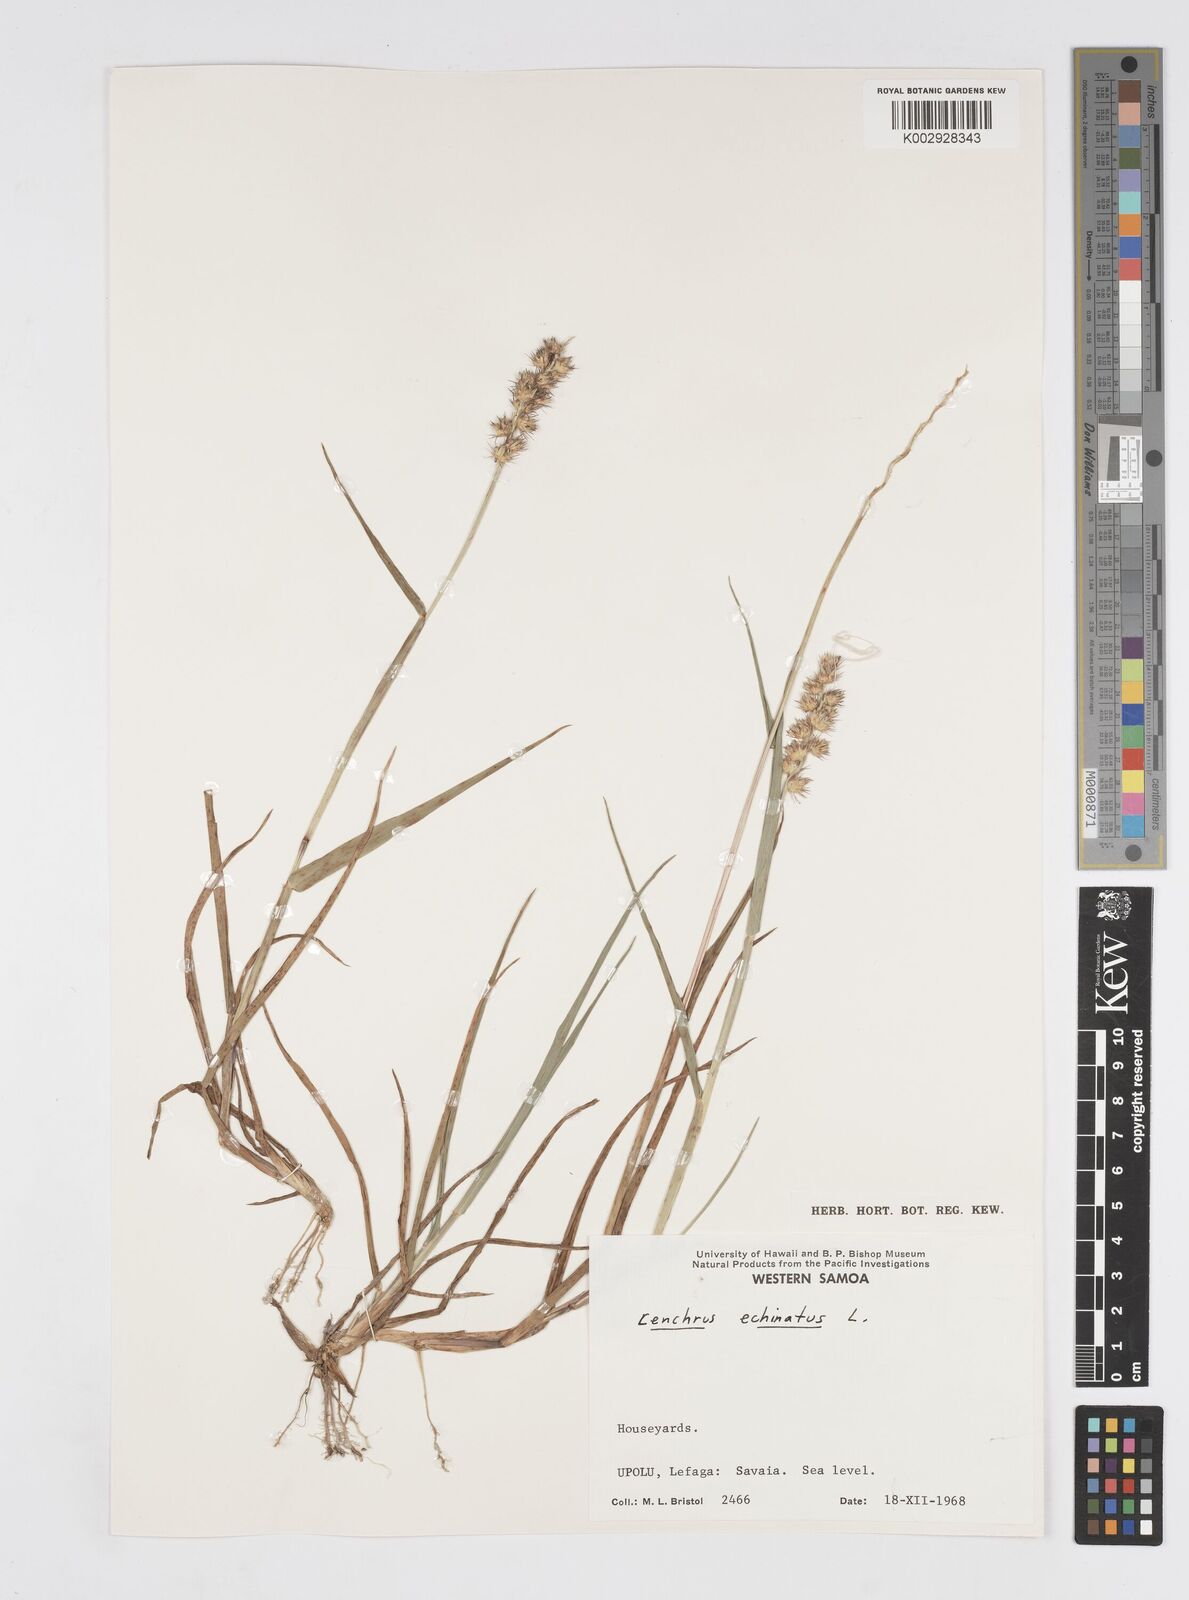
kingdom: Plantae
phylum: Tracheophyta
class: Liliopsida
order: Poales
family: Poaceae
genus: Cenchrus
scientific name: Cenchrus echinatus
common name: Southern sandbur
